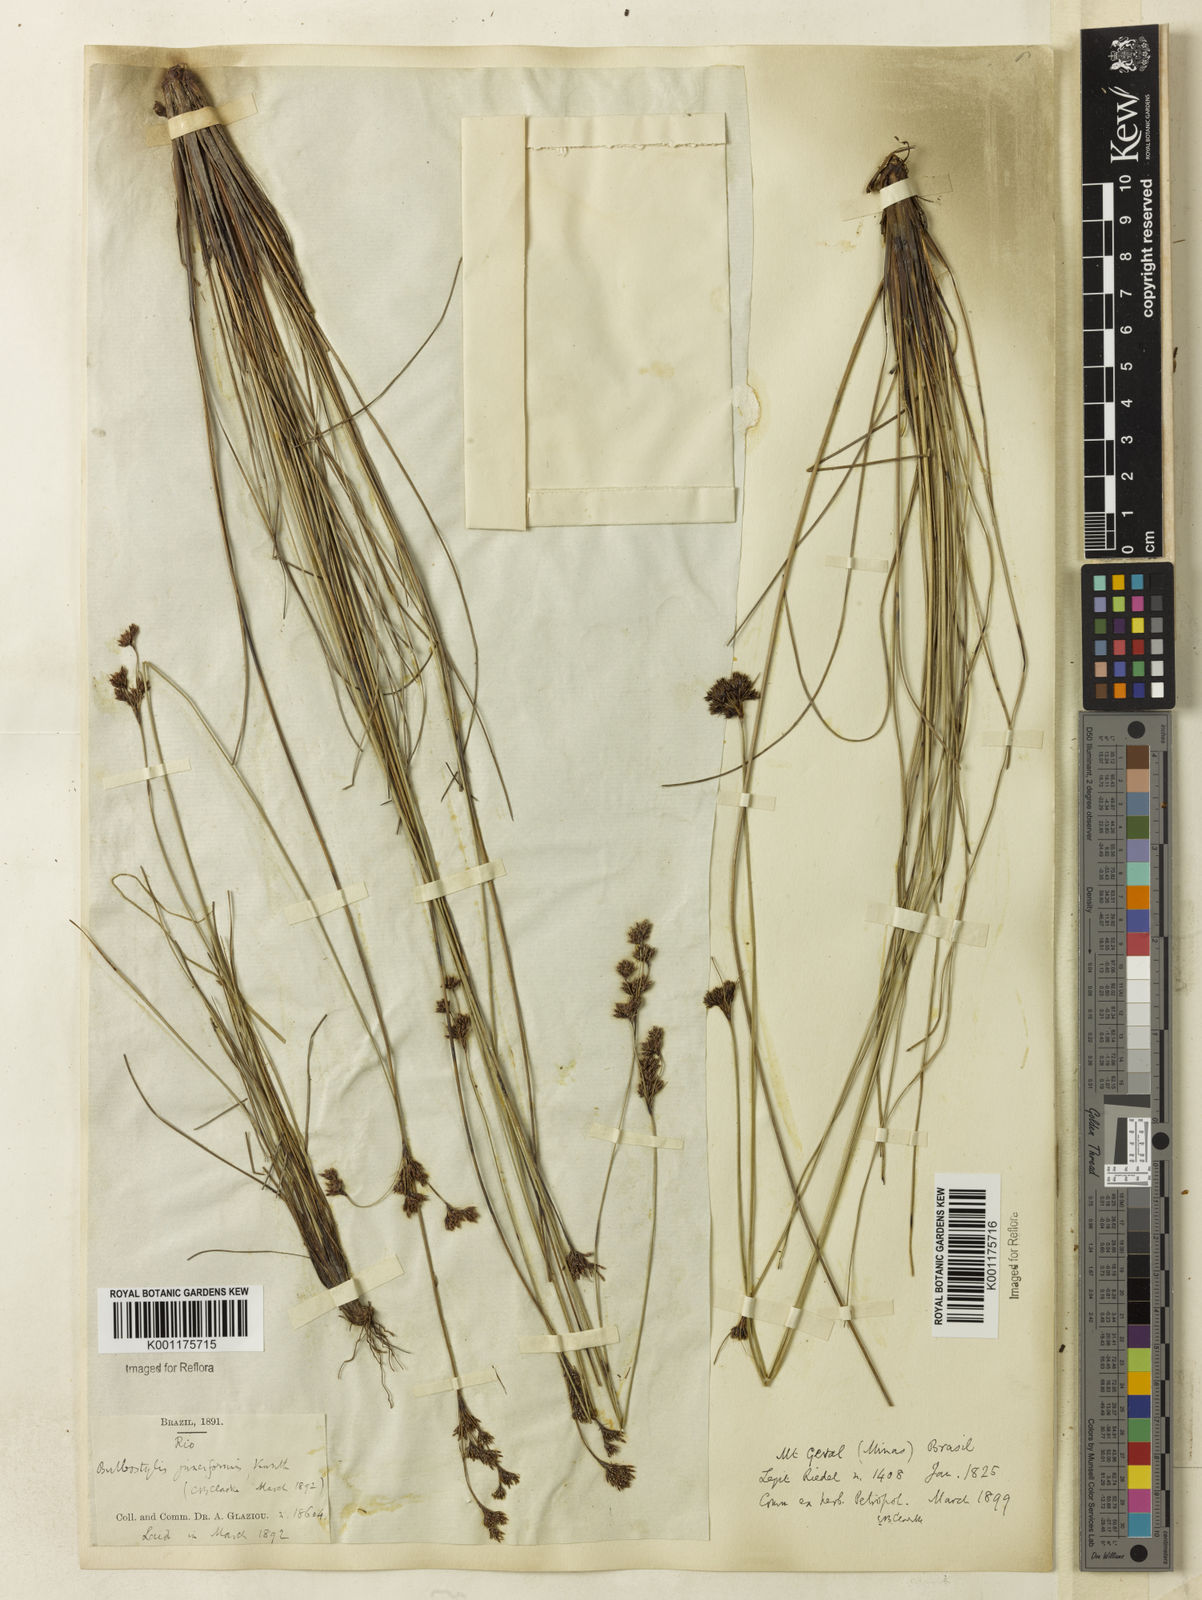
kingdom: Plantae
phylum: Tracheophyta
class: Liliopsida
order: Poales
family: Cyperaceae
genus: Bulbostylis
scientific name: Bulbostylis junciformis
